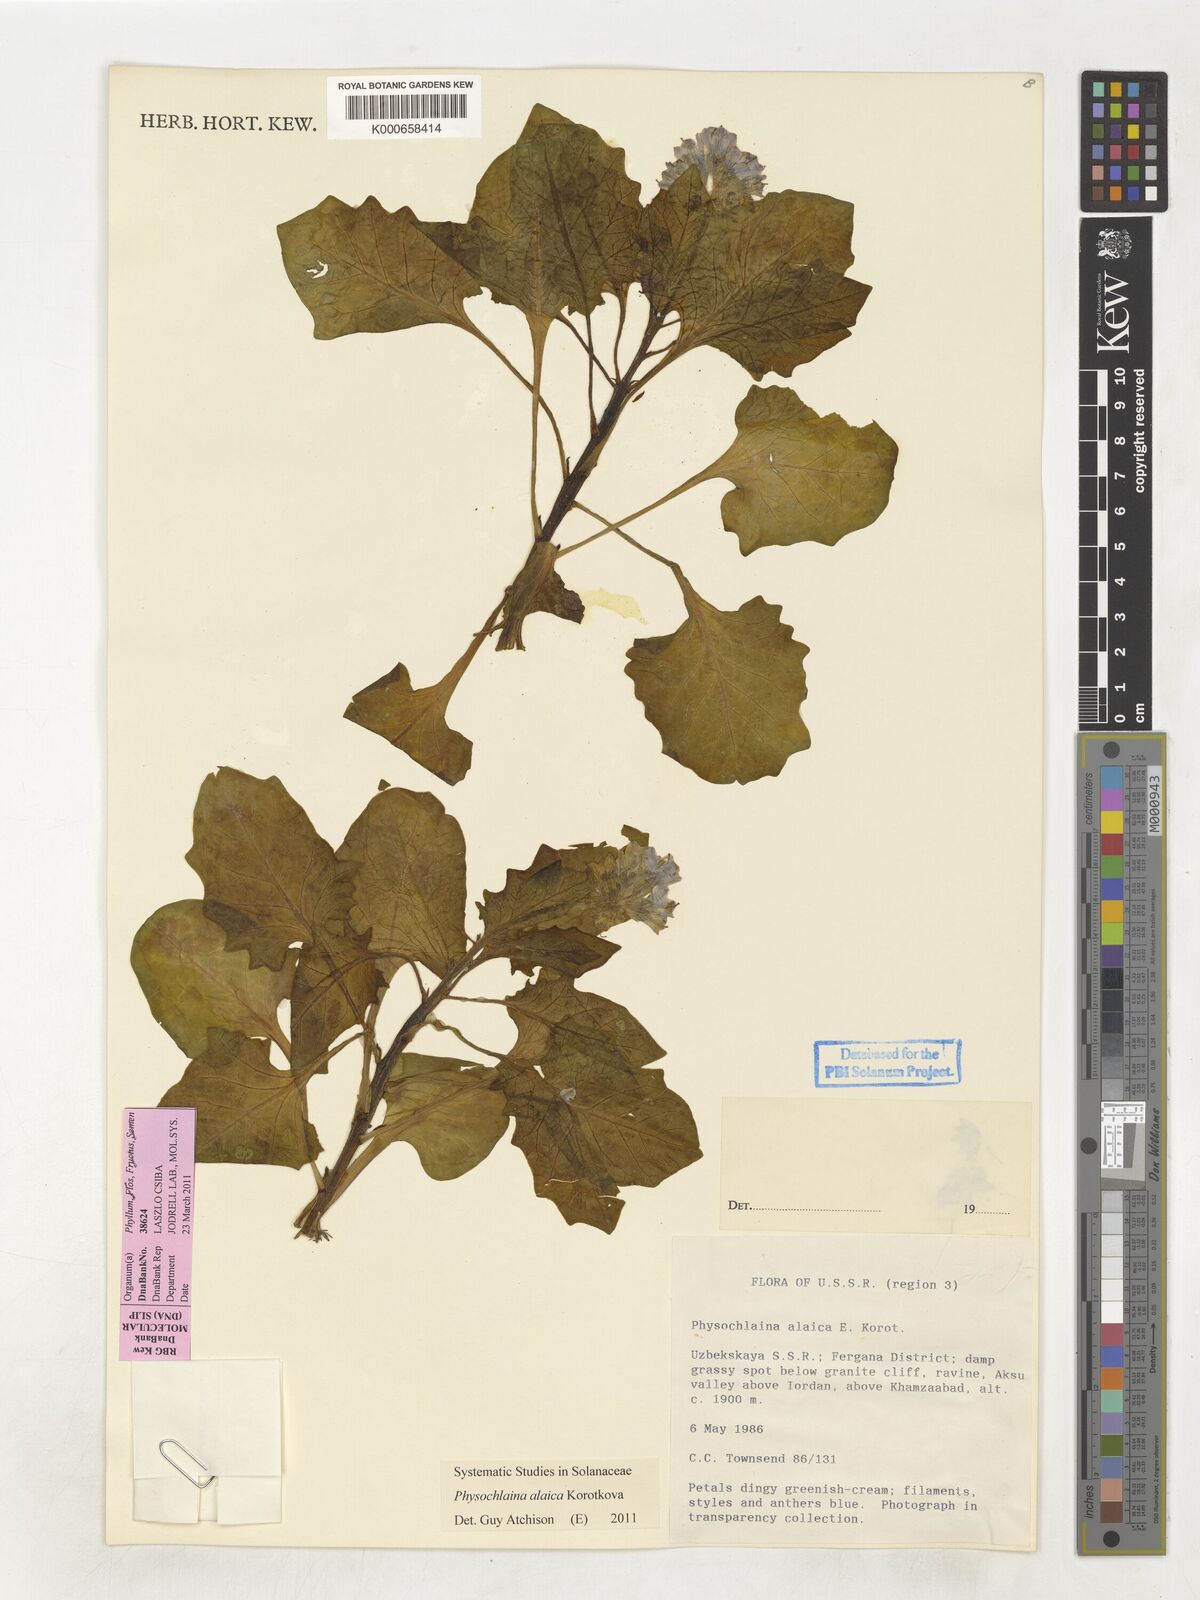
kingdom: Plantae
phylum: Tracheophyta
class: Magnoliopsida
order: Solanales
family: Solanaceae
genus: Physochlaina
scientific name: Physochlaina alaica
